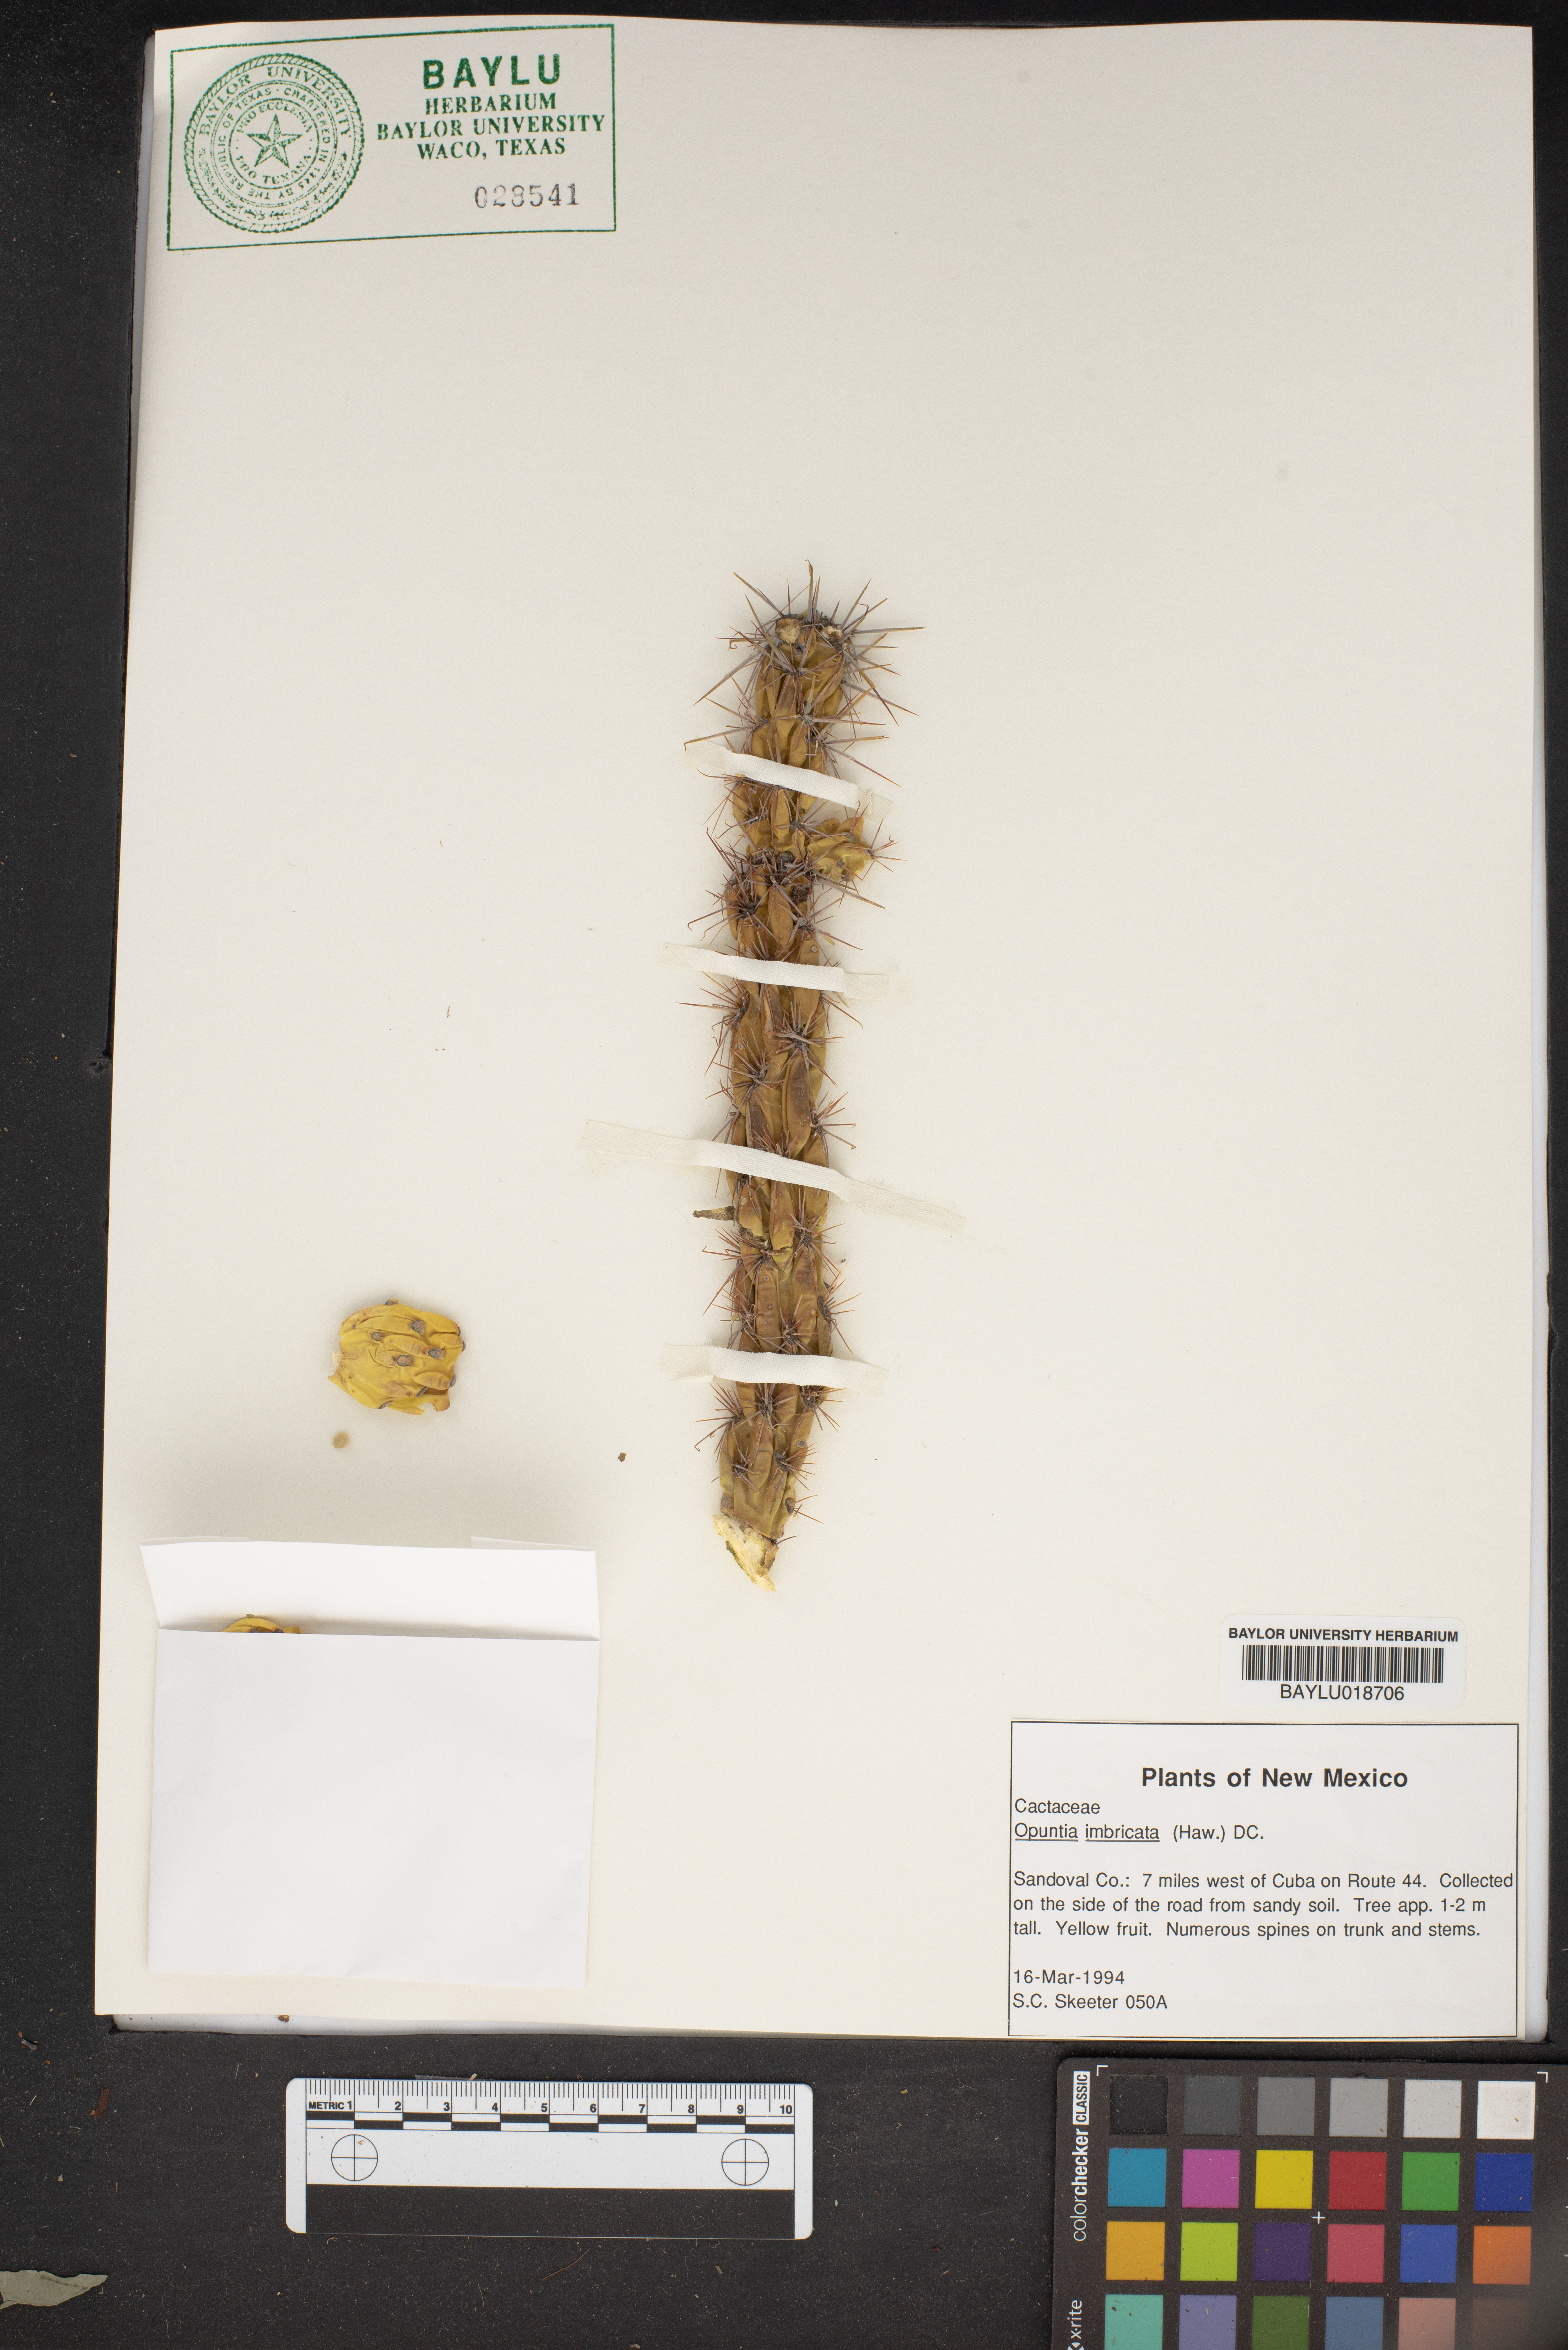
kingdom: Plantae
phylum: Tracheophyta
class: Magnoliopsida
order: Caryophyllales
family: Cactaceae
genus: Cylindropuntia
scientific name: Cylindropuntia imbricata
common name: Candelabrum cactus
